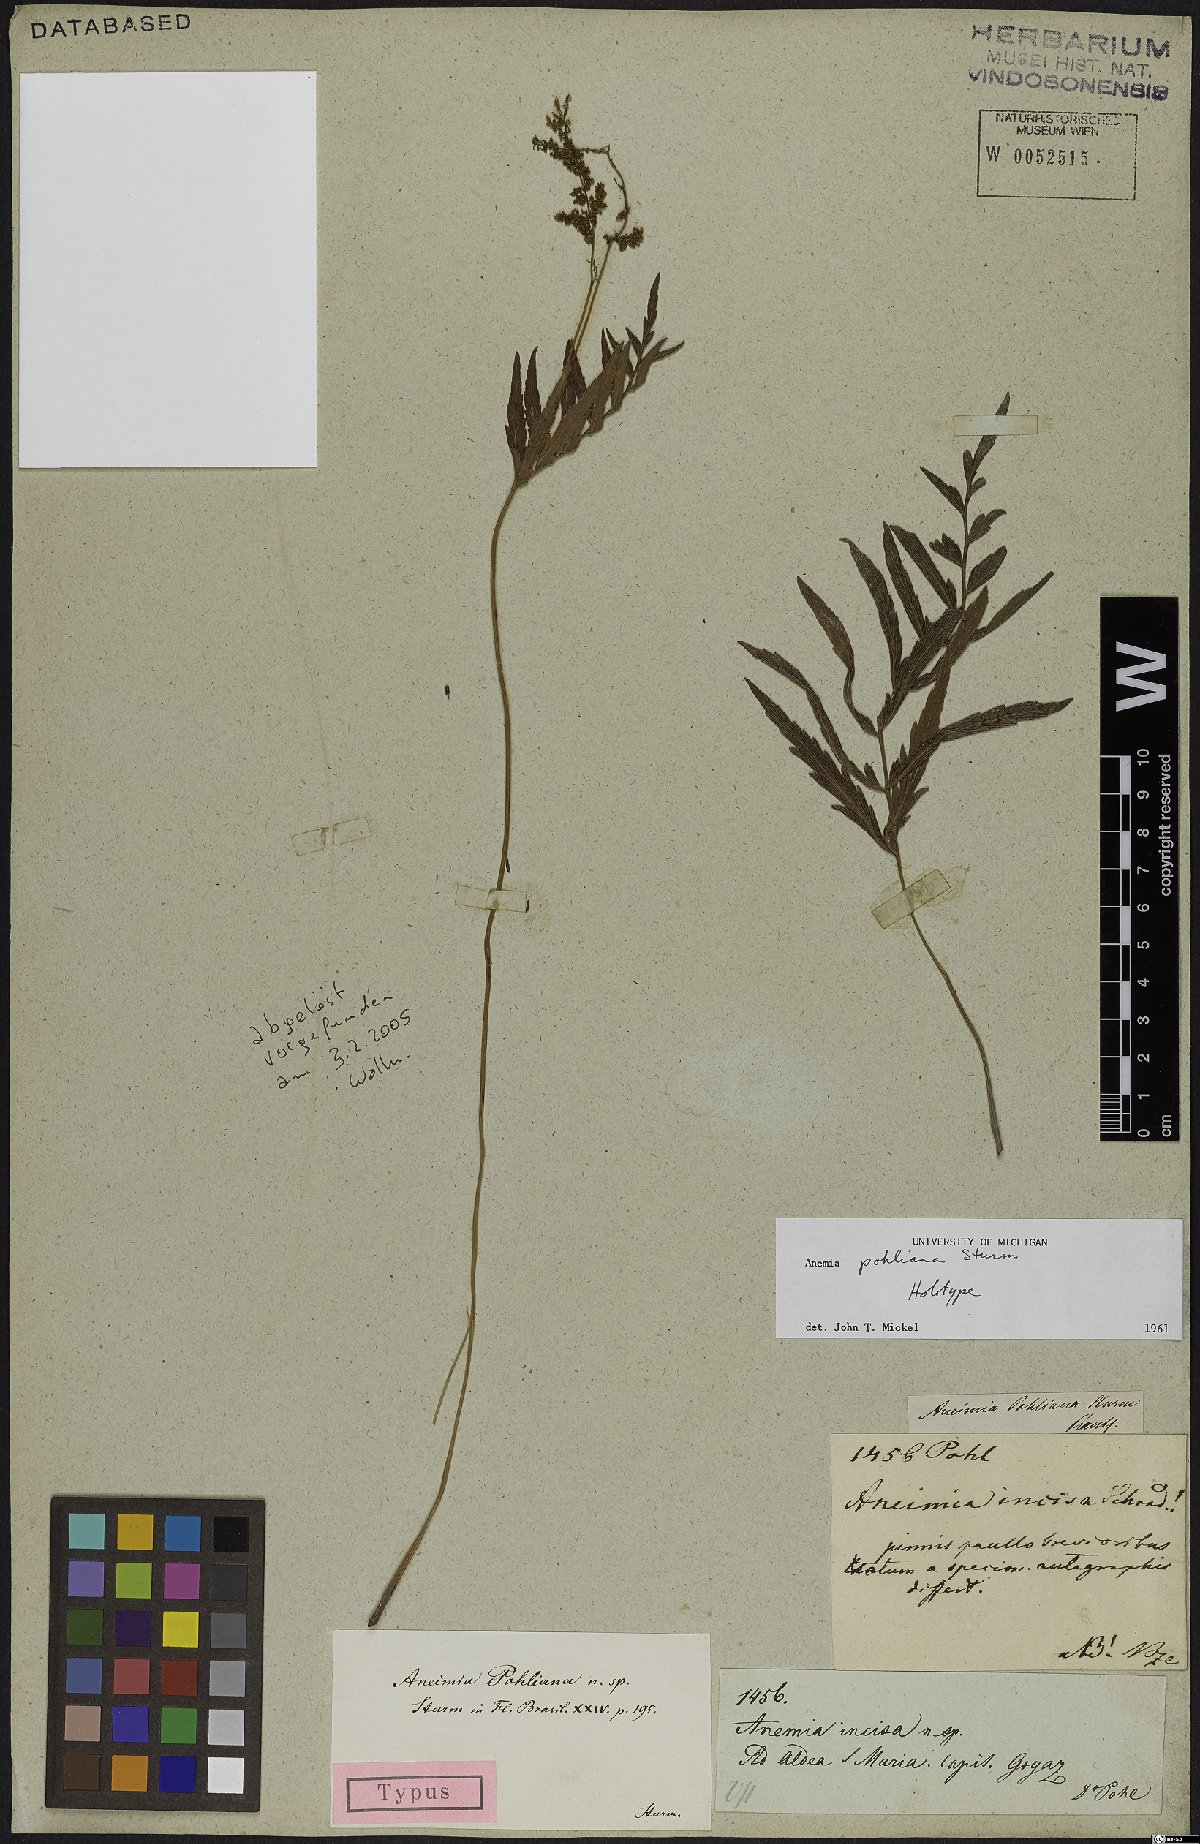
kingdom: Plantae
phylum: Tracheophyta
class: Polypodiopsida
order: Schizaeales
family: Anemiaceae
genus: Anemia
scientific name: Anemia hirta
